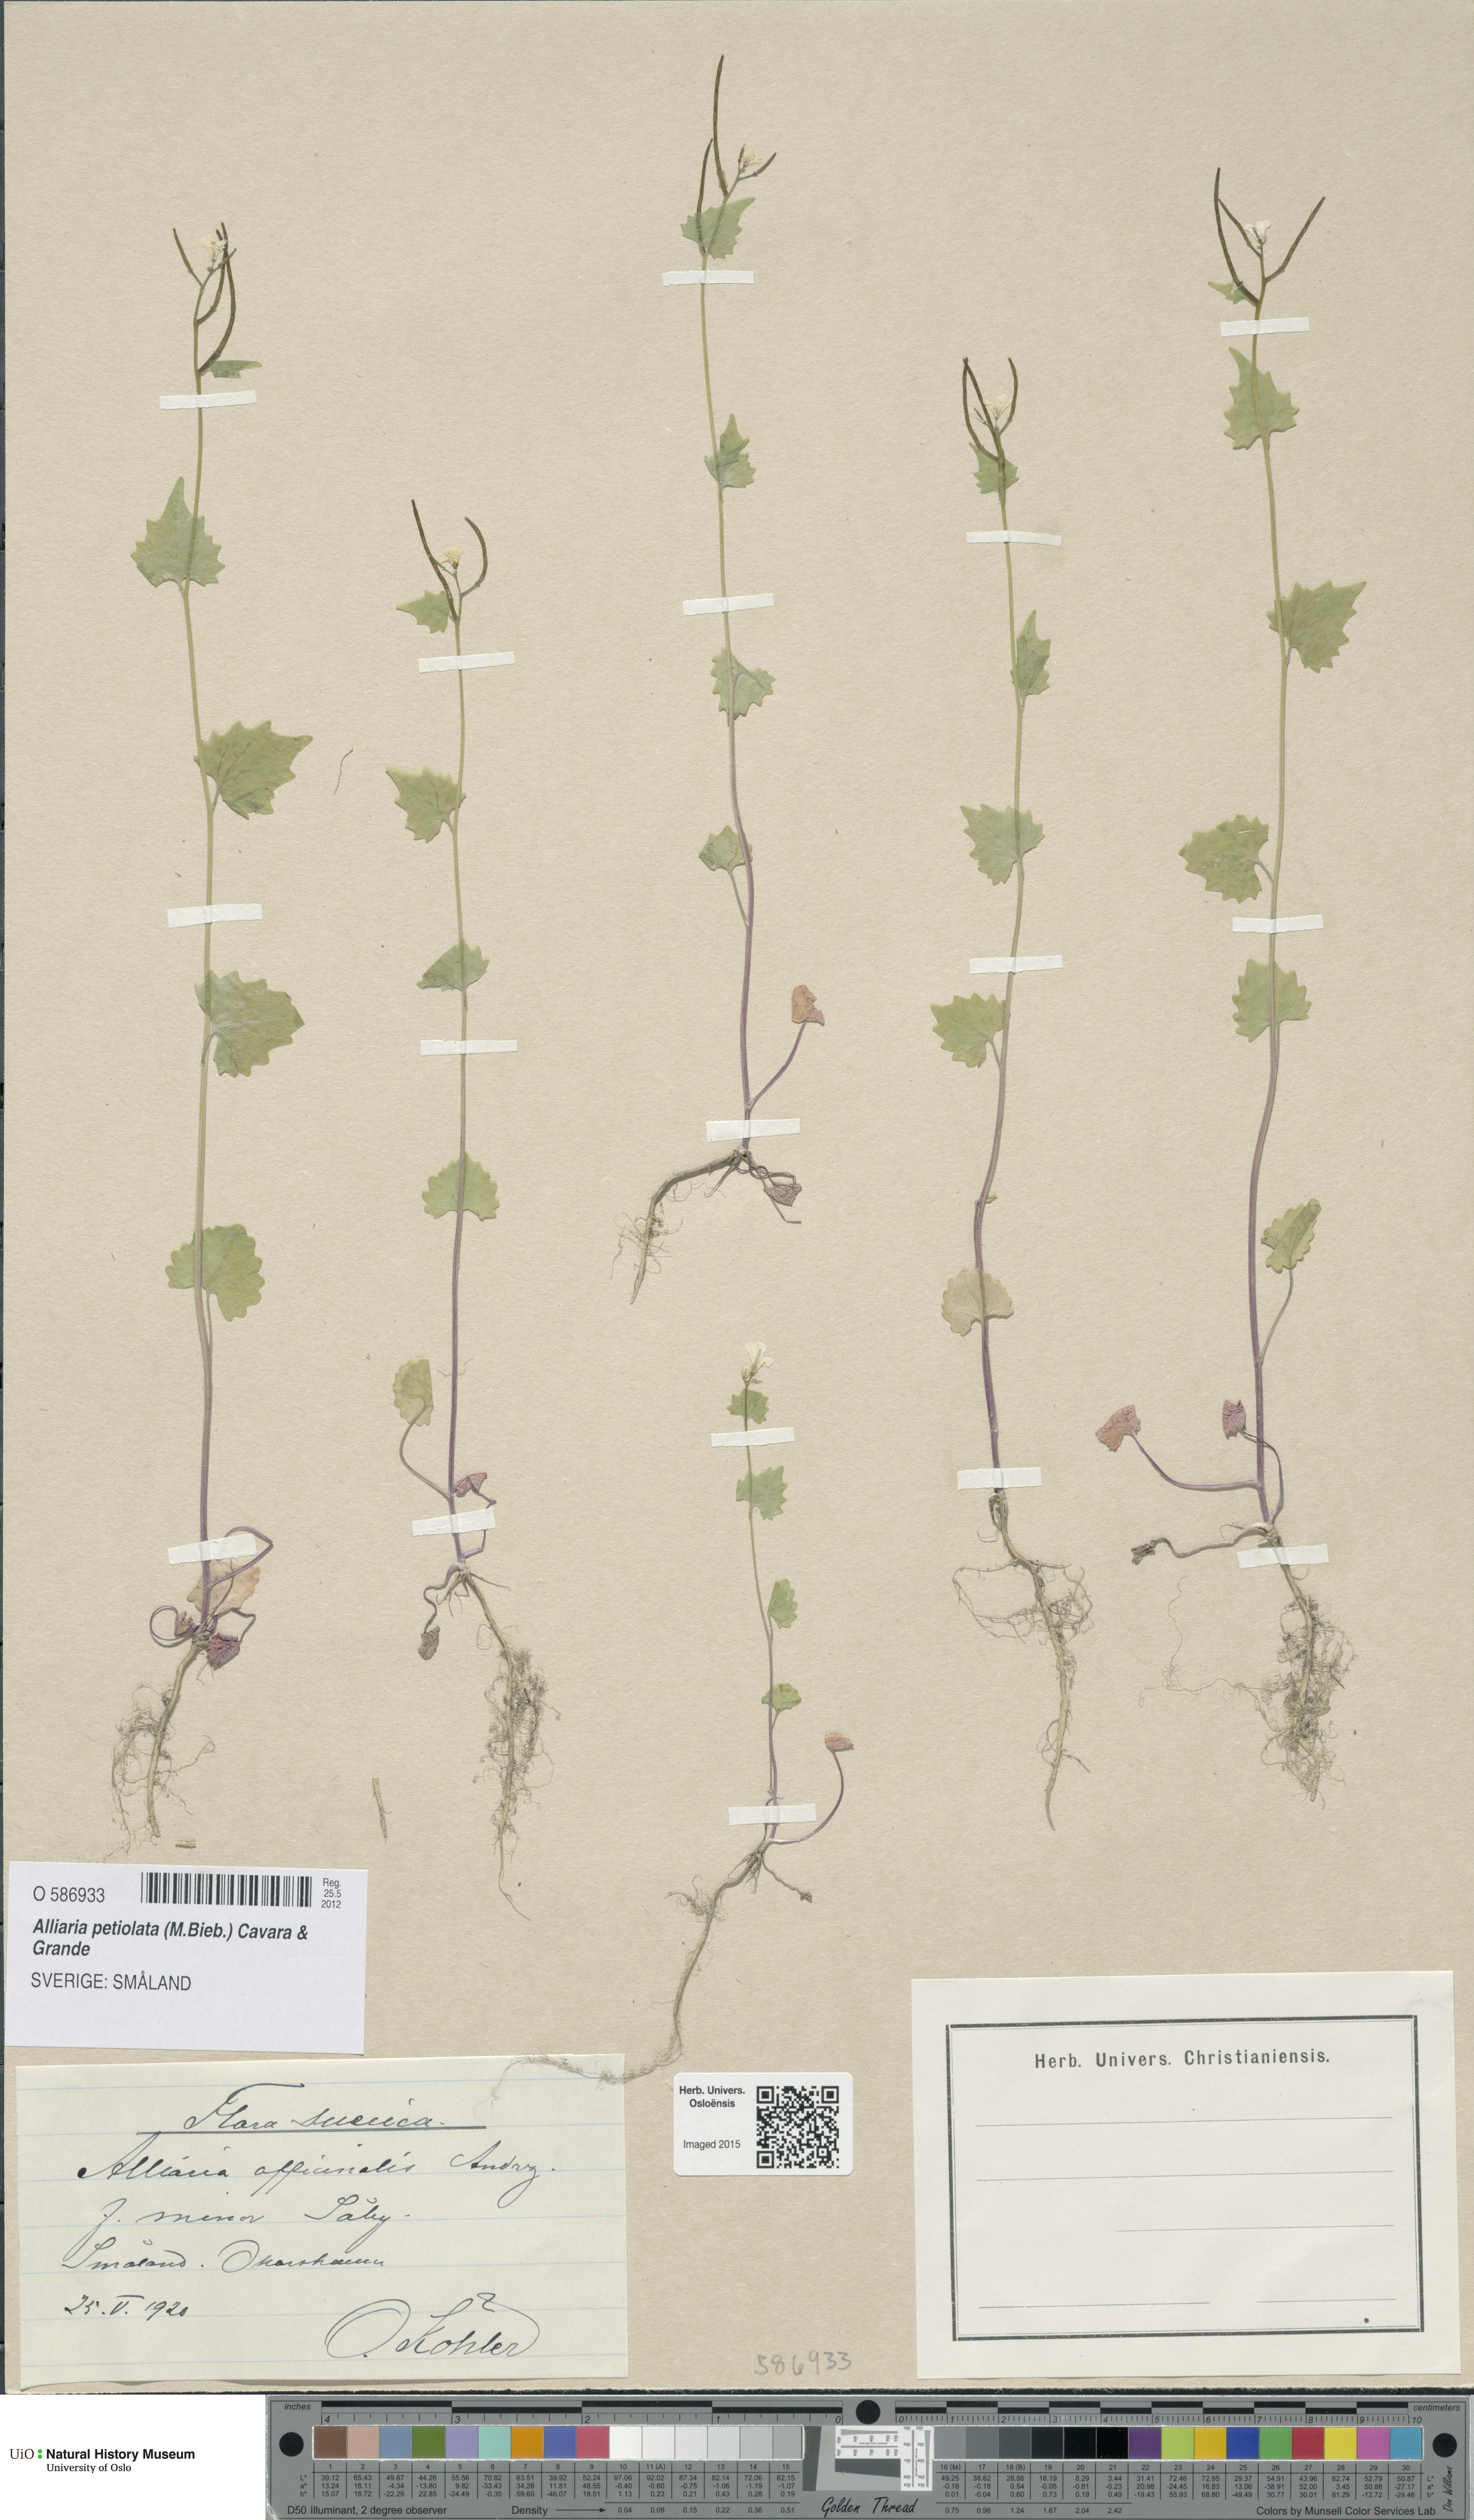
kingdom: Plantae
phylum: Tracheophyta
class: Magnoliopsida
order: Brassicales
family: Brassicaceae
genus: Alliaria
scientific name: Alliaria petiolata
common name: Garlic mustard
